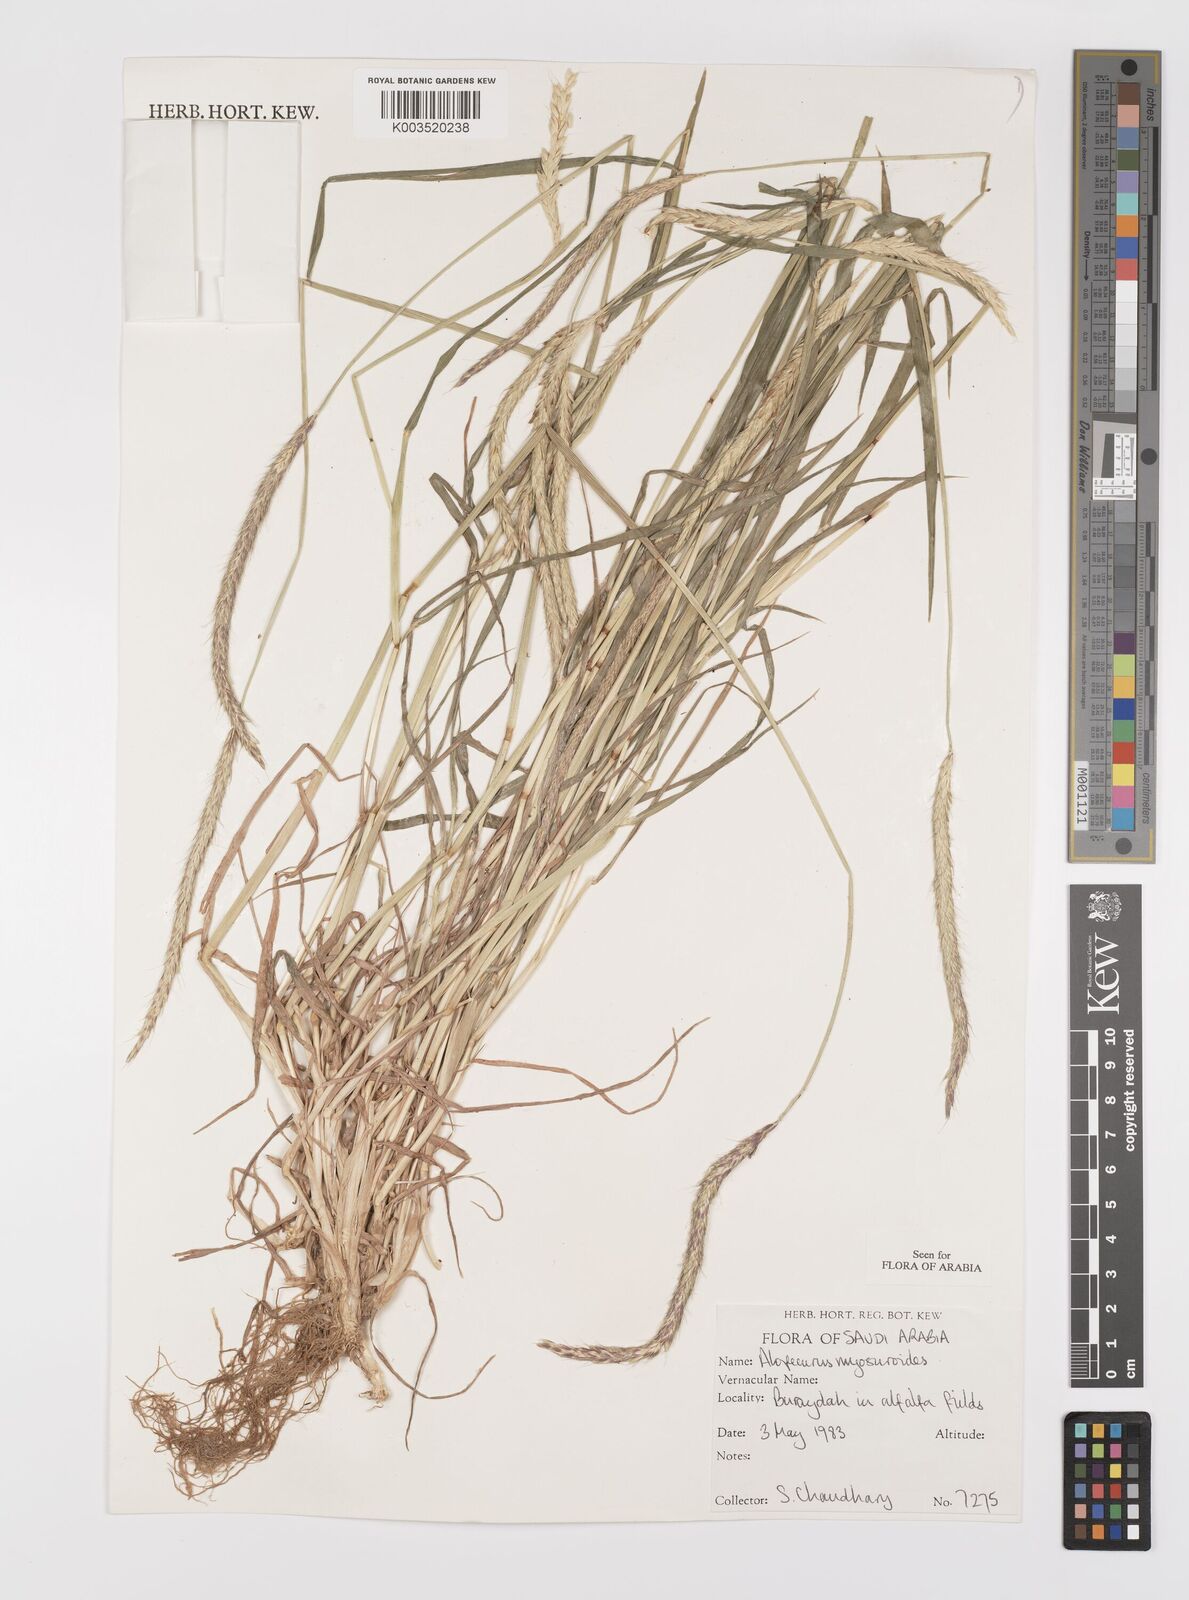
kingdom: Plantae
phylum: Tracheophyta
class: Liliopsida
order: Poales
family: Poaceae
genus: Alopecurus
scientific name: Alopecurus myosuroides
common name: Black-grass
